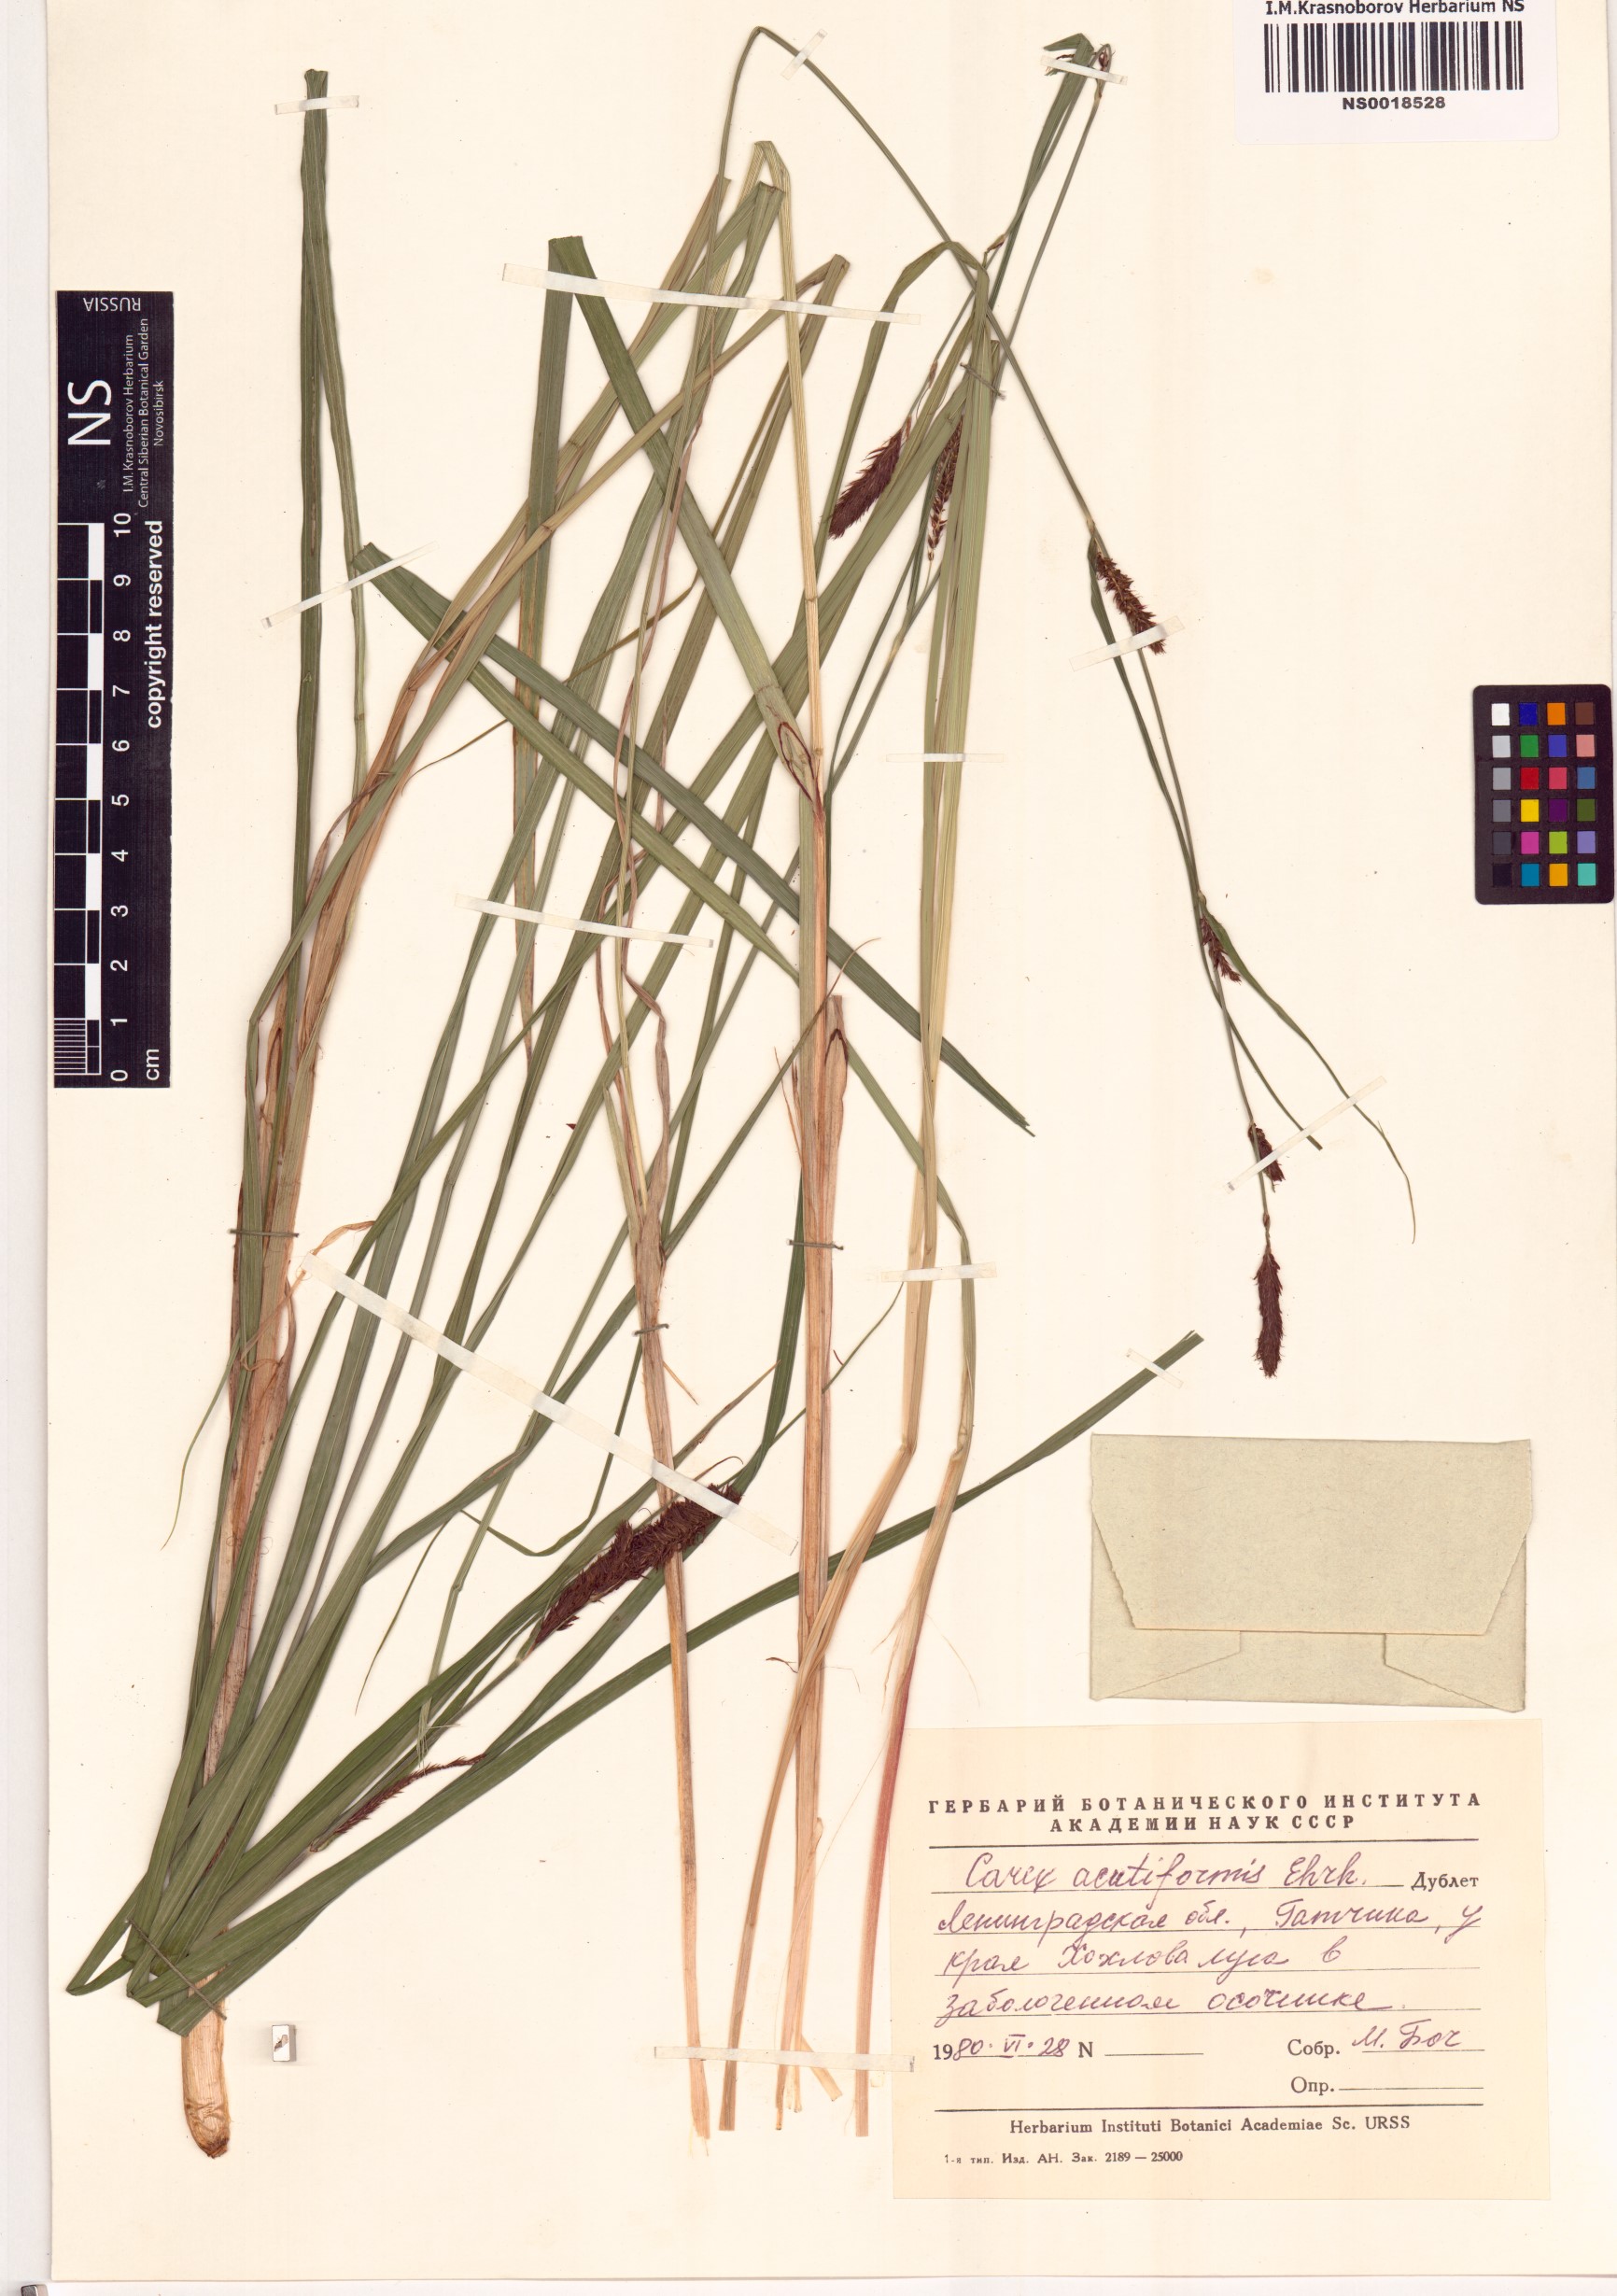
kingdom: Plantae
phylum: Tracheophyta
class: Liliopsida
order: Poales
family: Cyperaceae
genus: Carex
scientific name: Carex acutiformis
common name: Lesser pond-sedge
